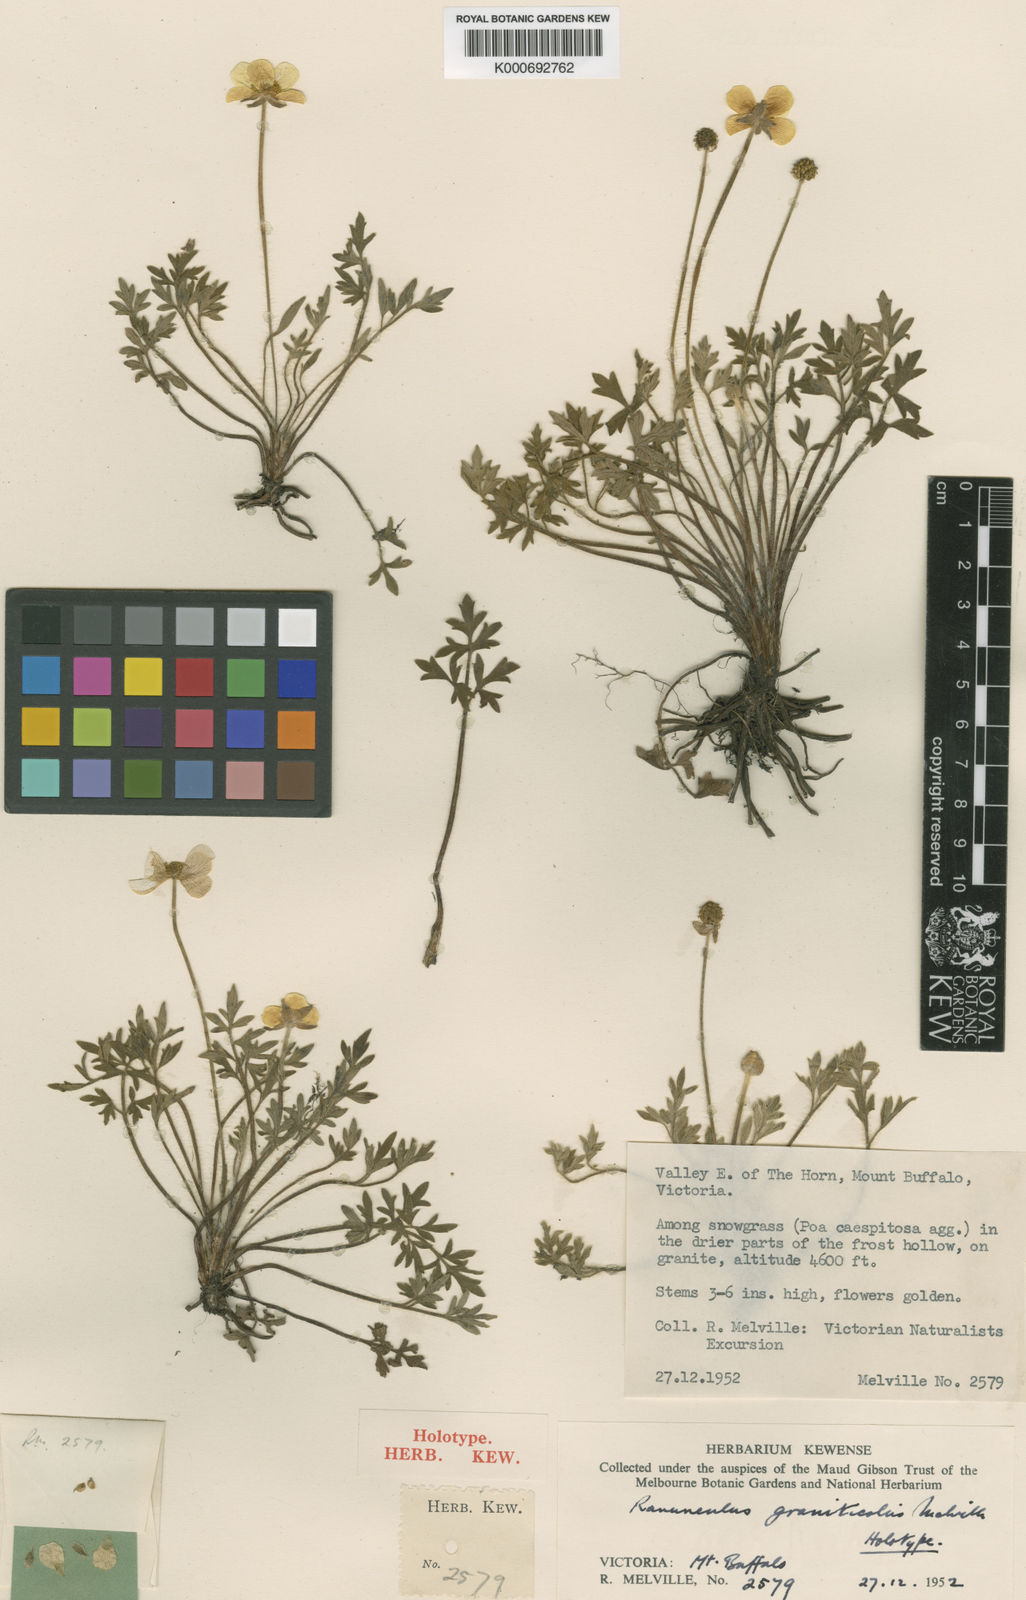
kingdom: Plantae
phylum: Tracheophyta
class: Magnoliopsida
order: Ranunculales
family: Ranunculaceae
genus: Ranunculus
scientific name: Ranunculus graniticola
